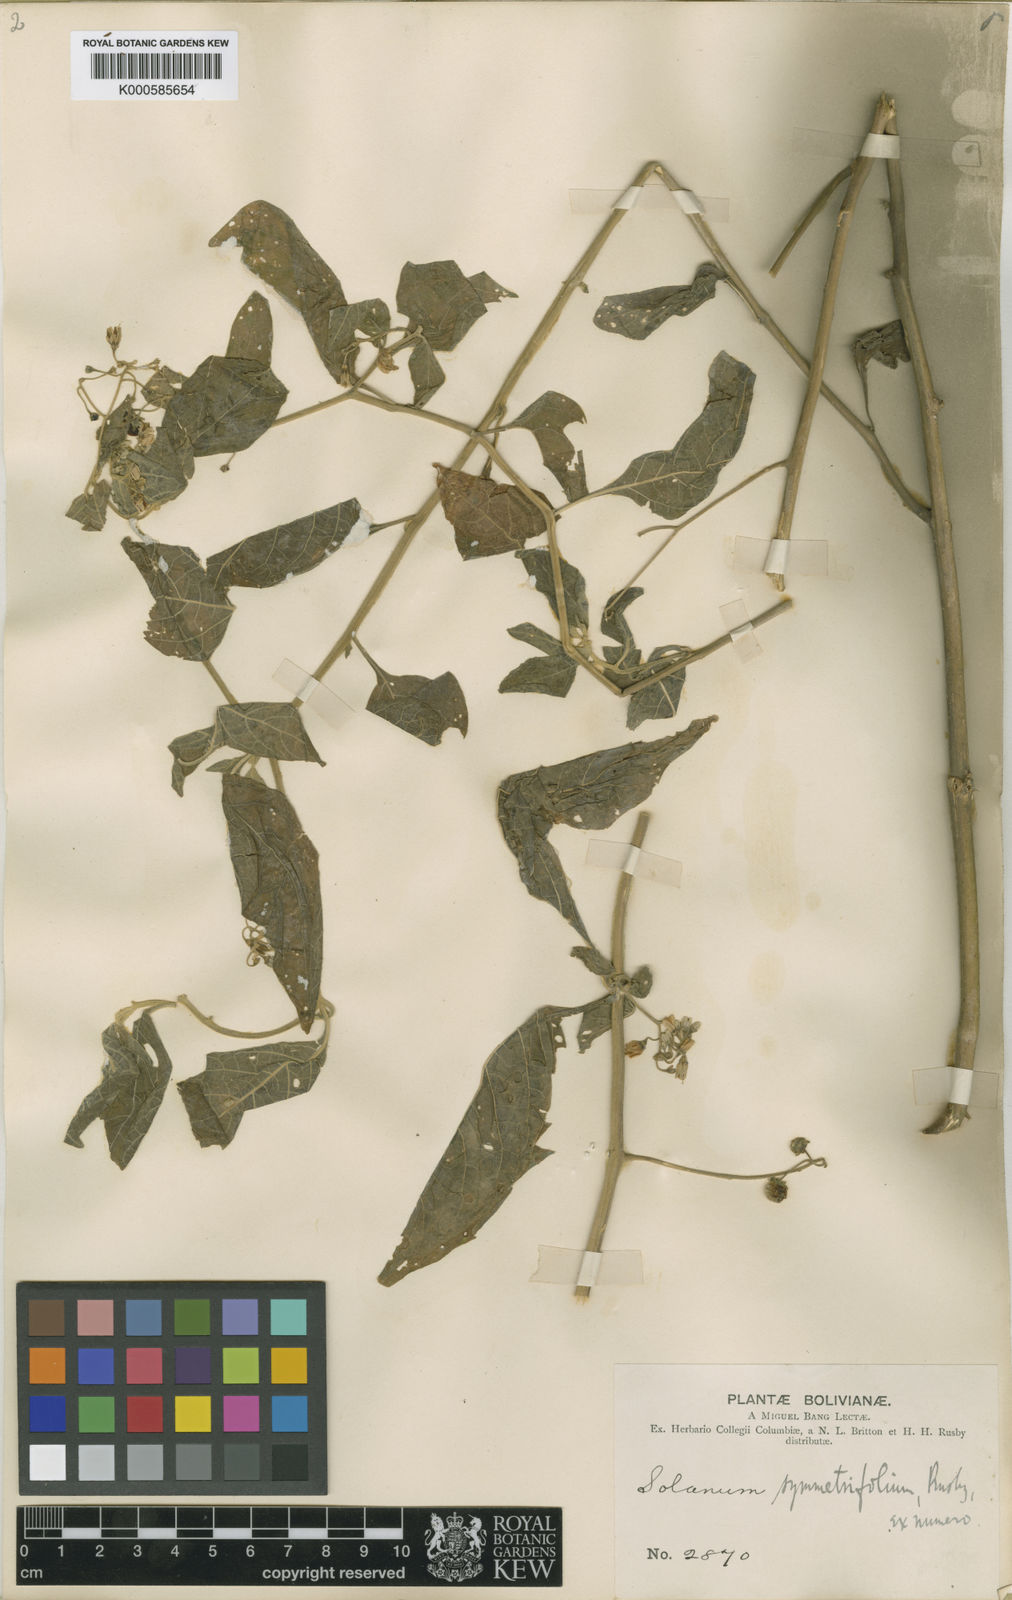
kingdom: Plantae
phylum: Tracheophyta
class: Magnoliopsida
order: Solanales
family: Solanaceae
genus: Solanum
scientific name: Solanum pallidum
